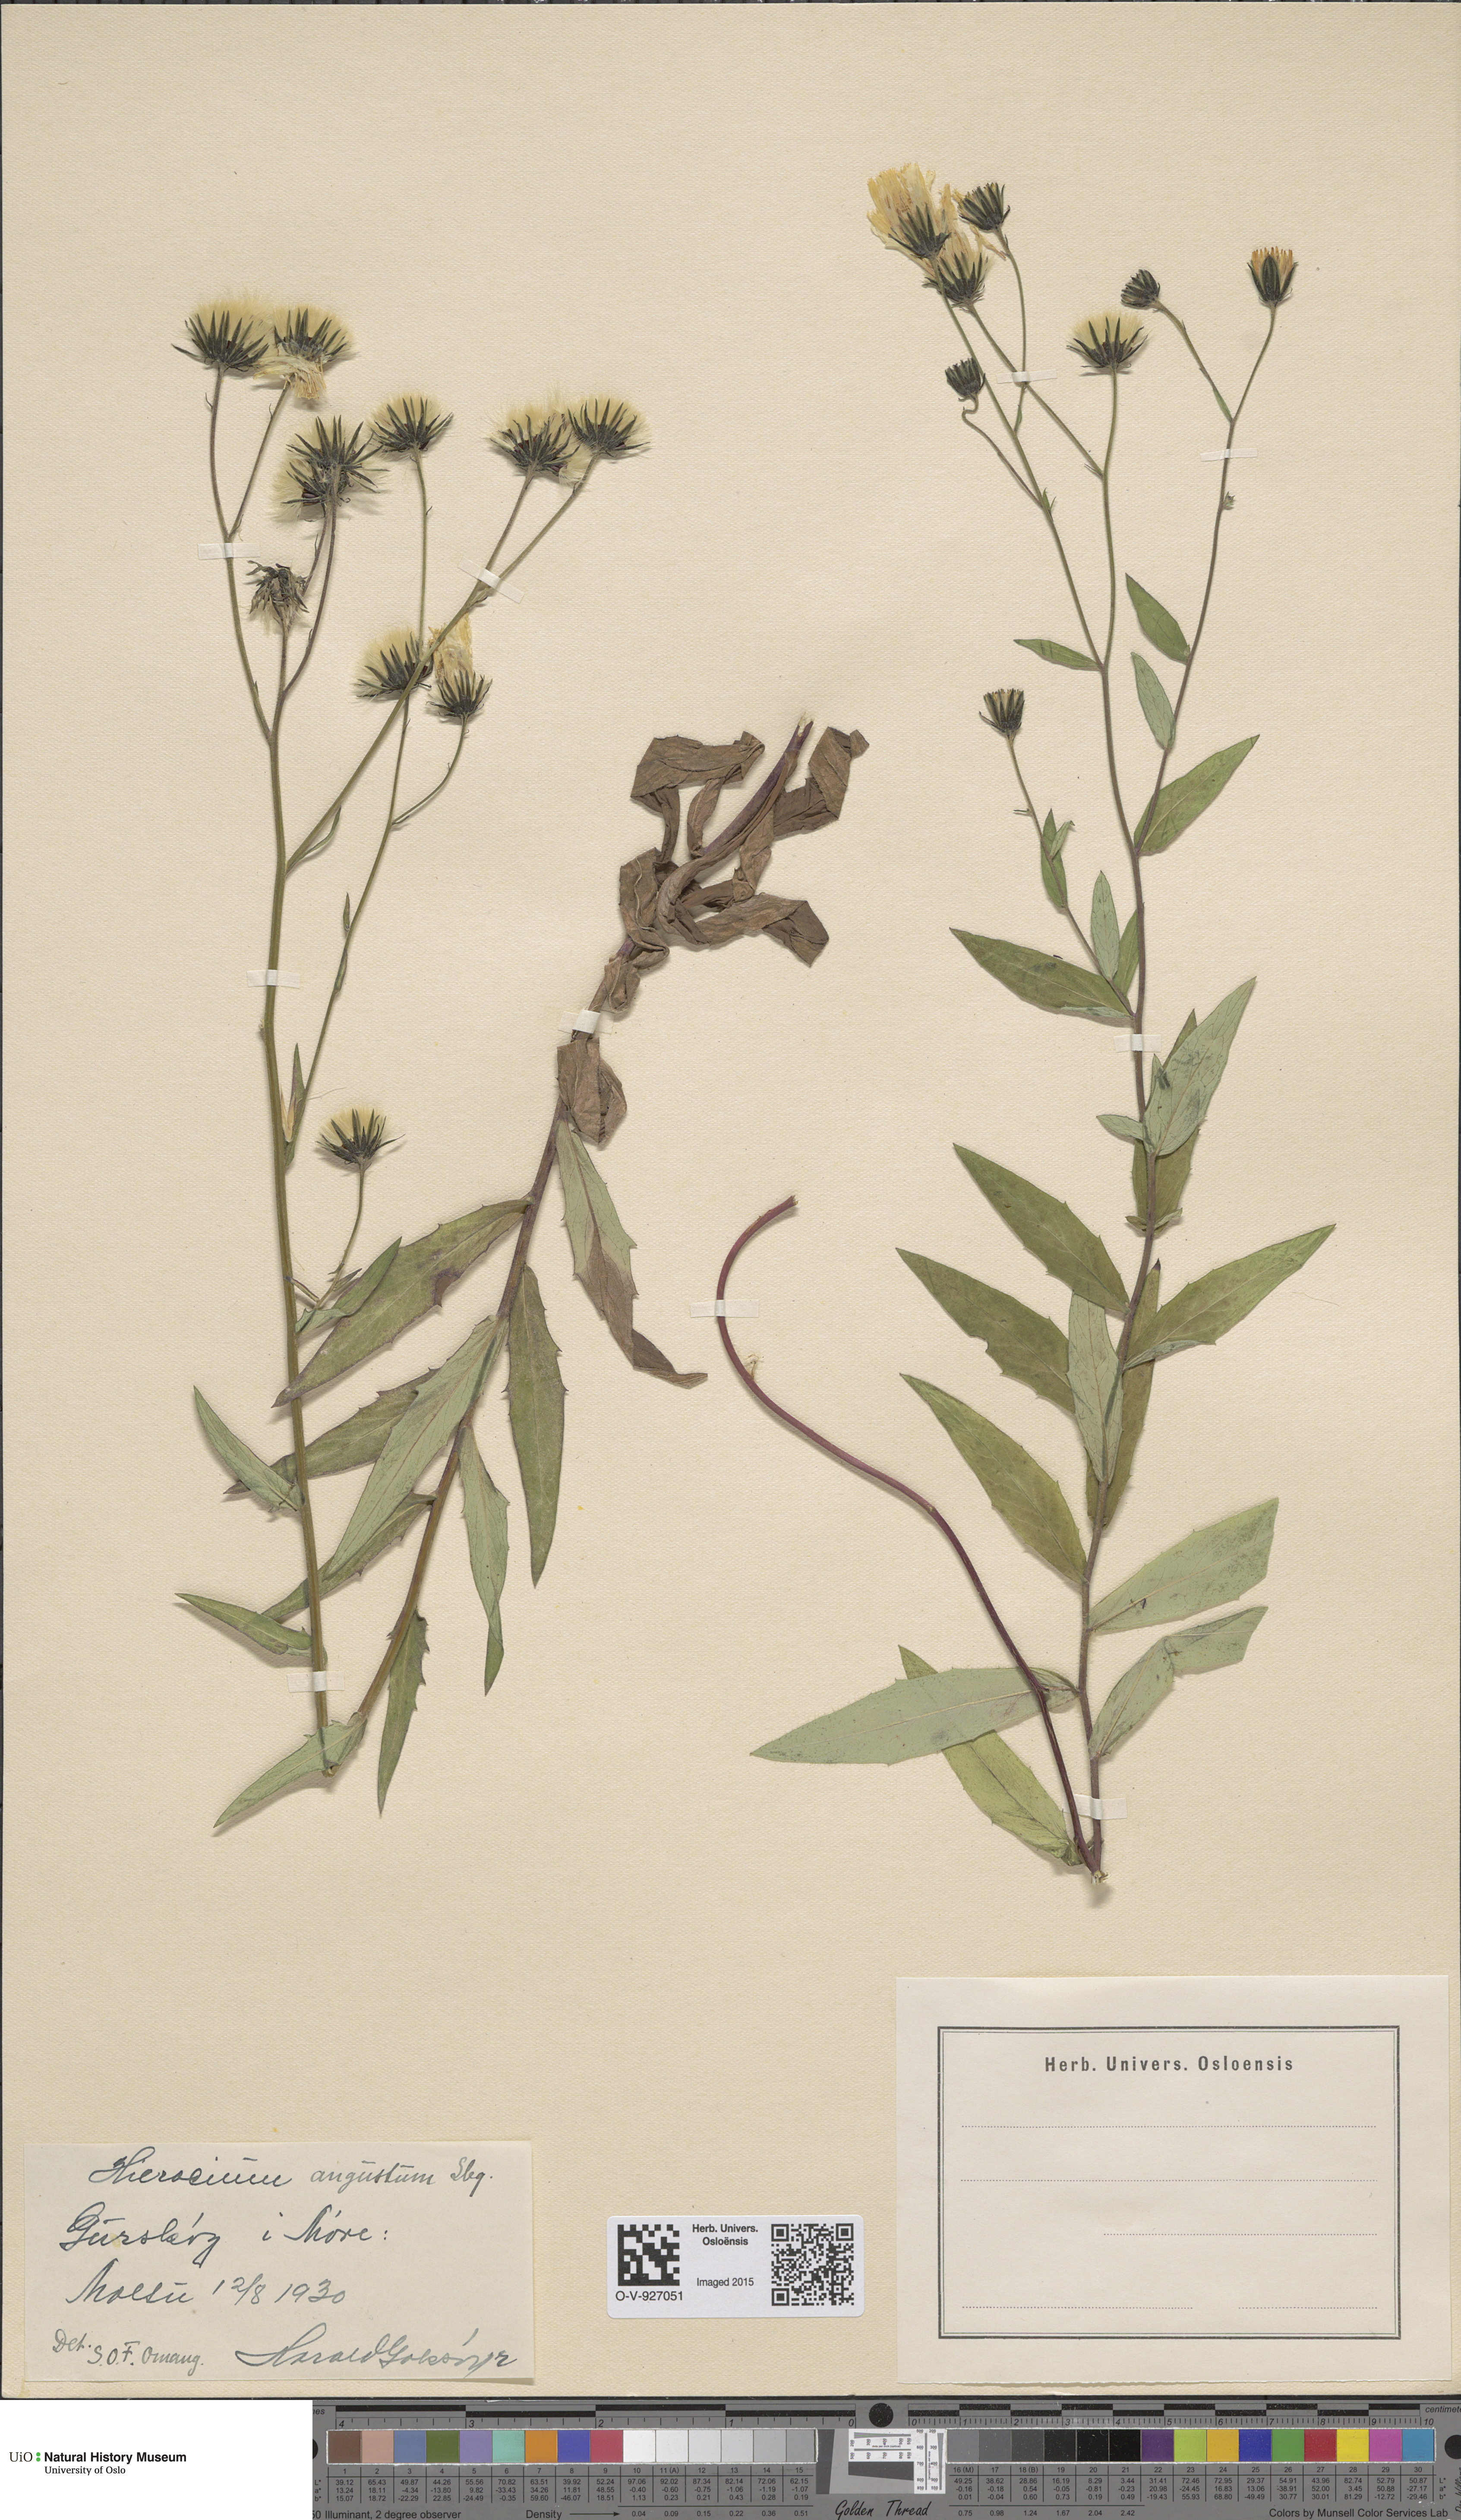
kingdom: Plantae
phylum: Tracheophyta
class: Magnoliopsida
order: Asterales
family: Asteraceae
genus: Hieracium
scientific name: Hieracium angustum
